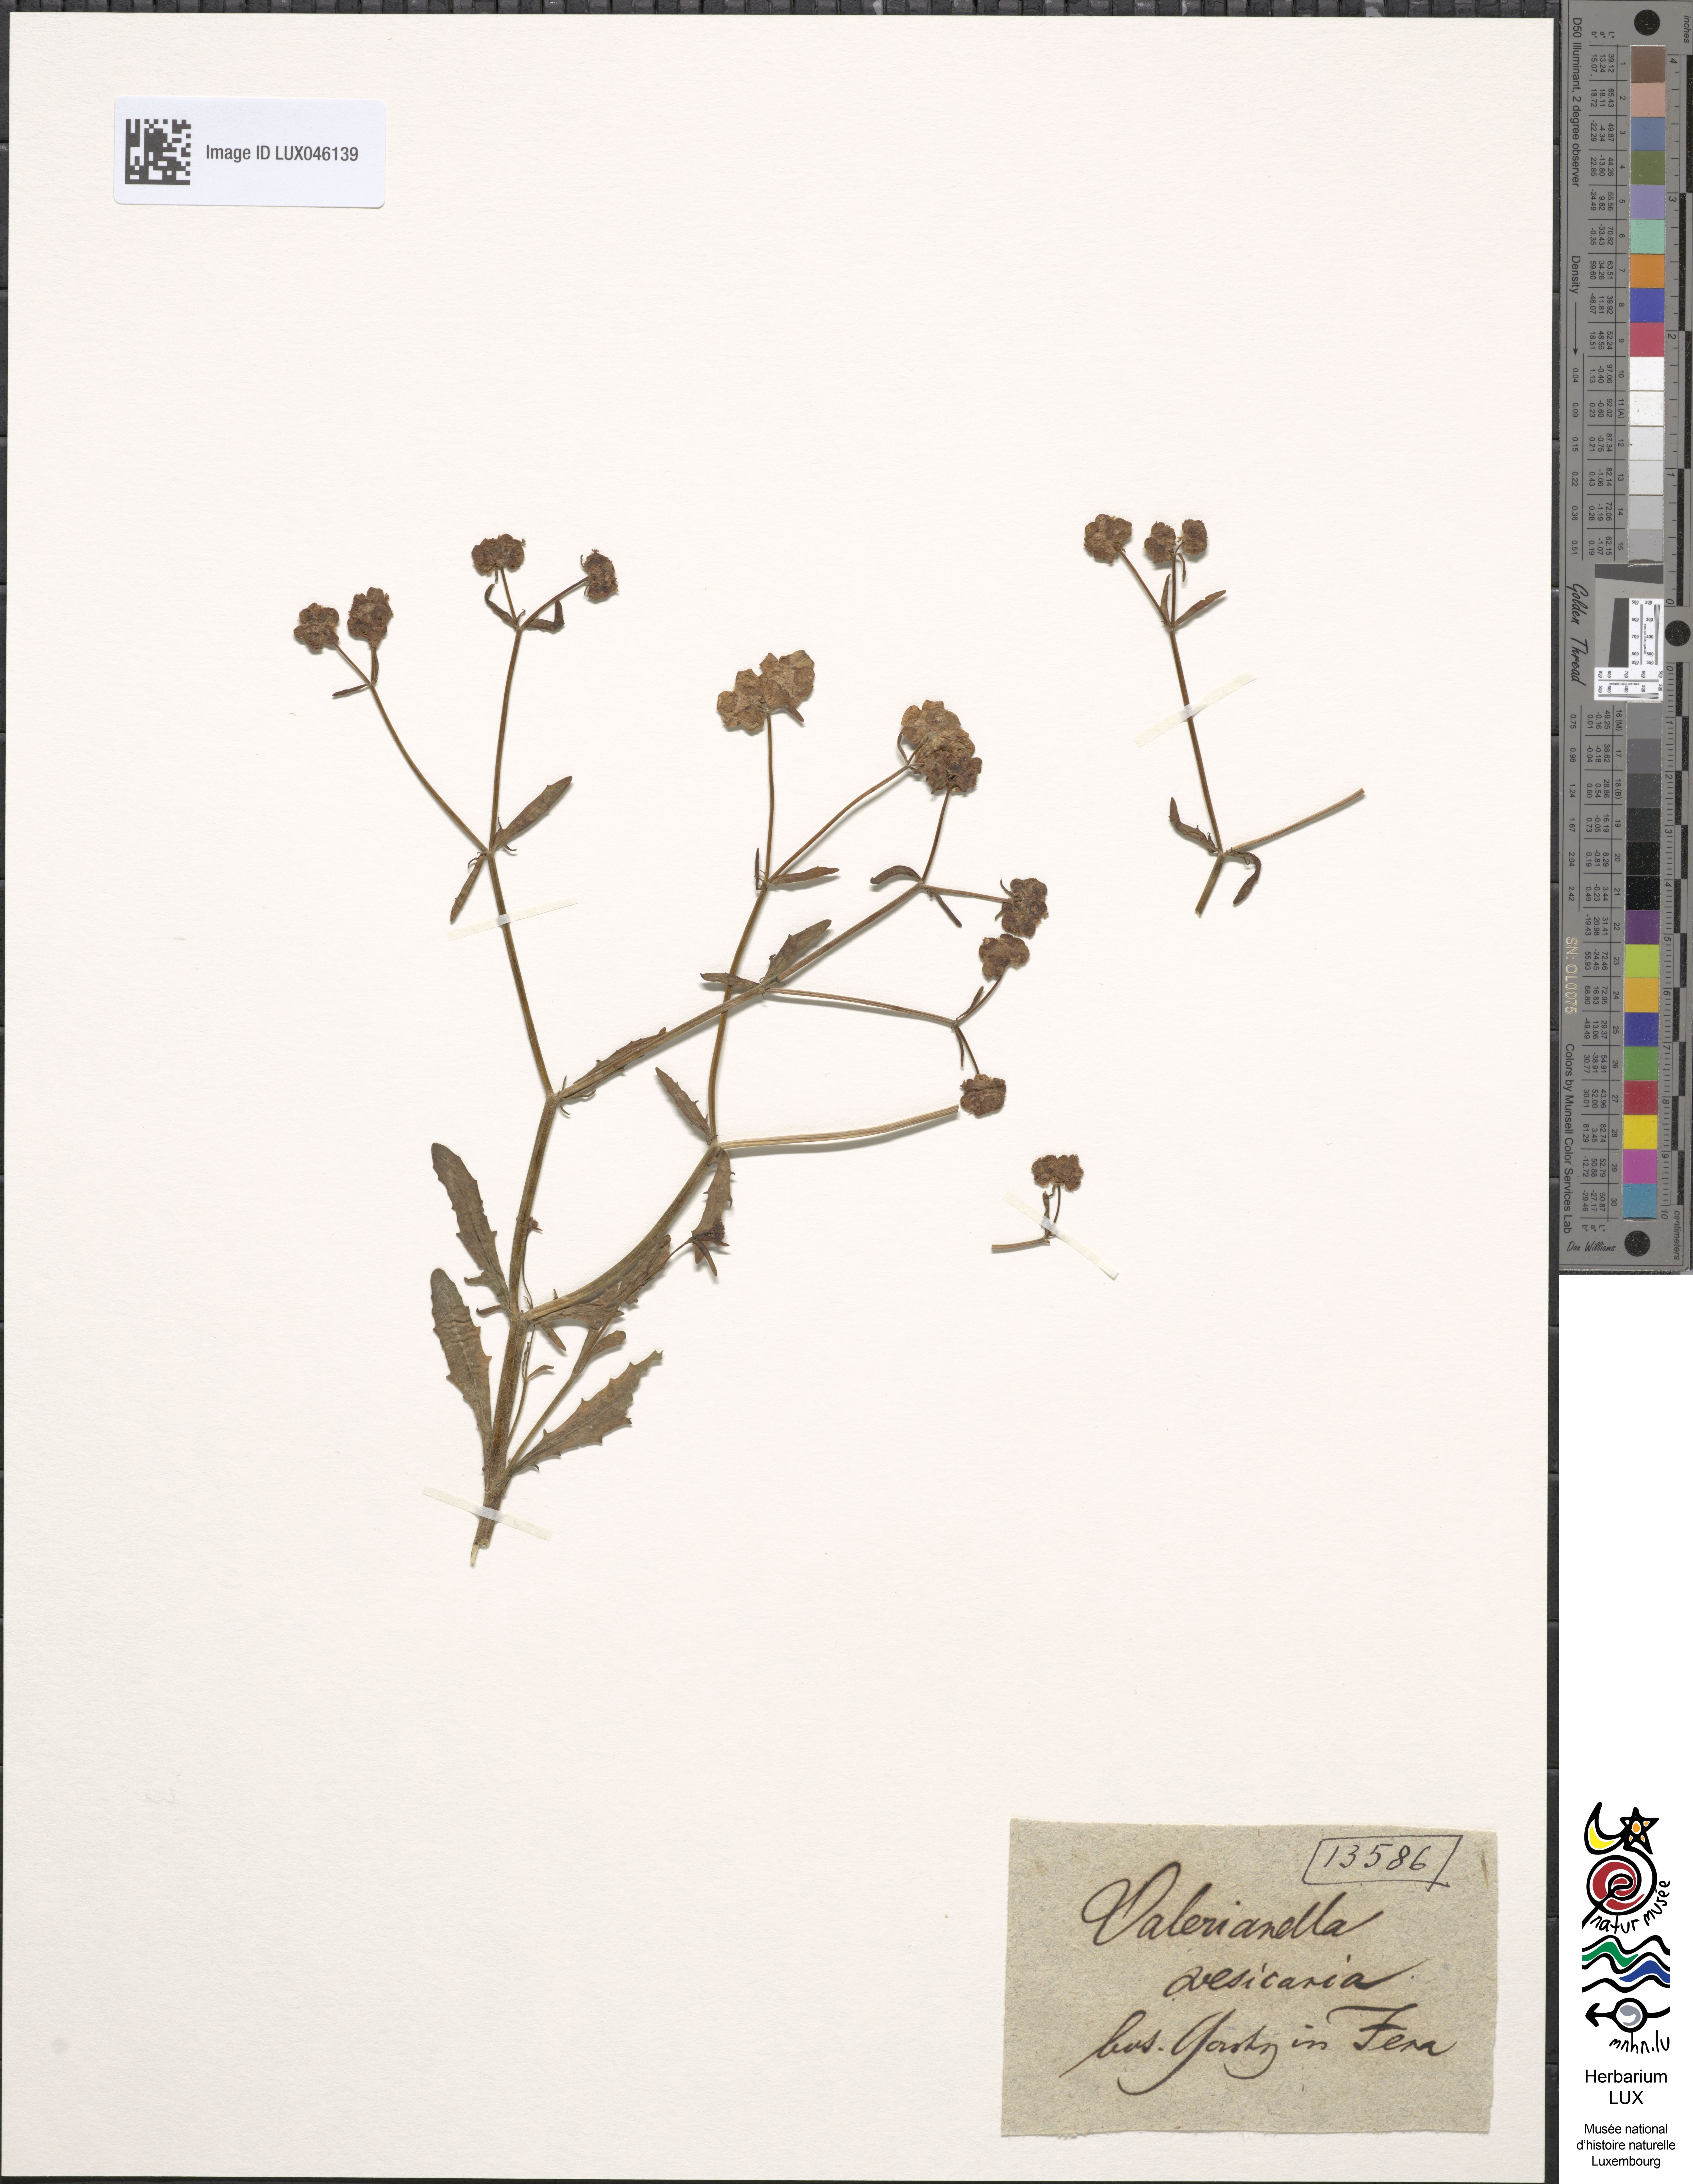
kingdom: Plantae
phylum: Tracheophyta
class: Magnoliopsida
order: Dipsacales
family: Caprifoliaceae
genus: Valerianella
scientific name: Valerianella vesicaria
